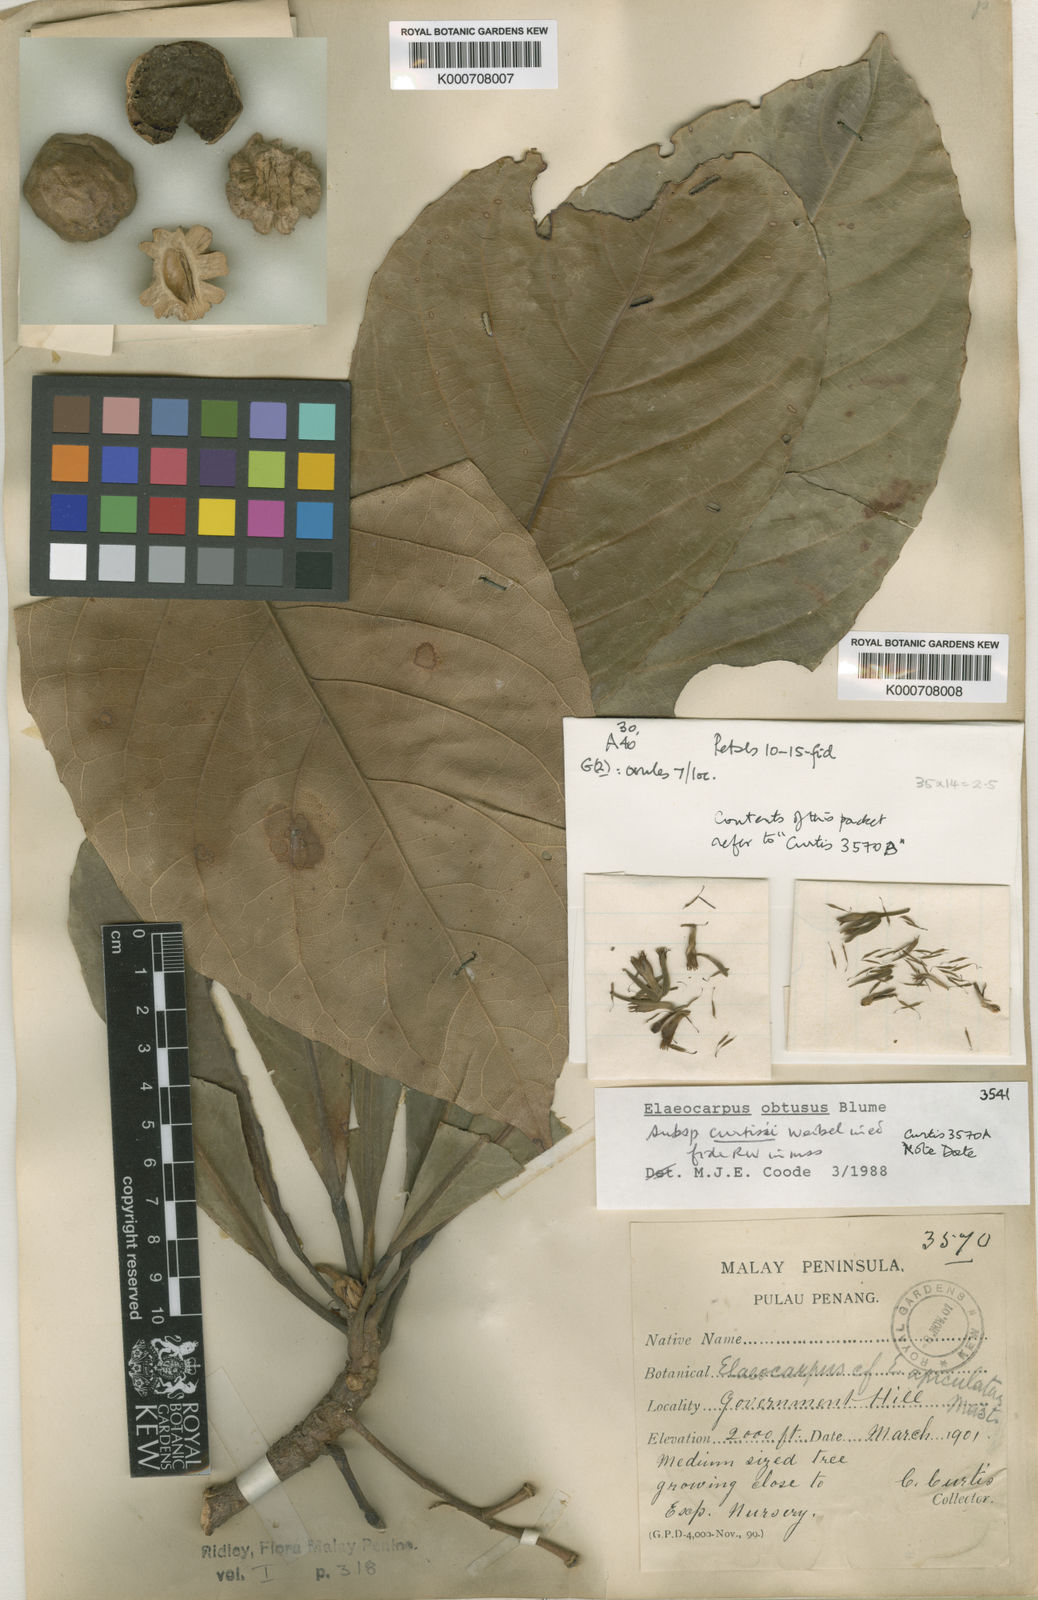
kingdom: Plantae
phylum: Tracheophyta
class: Magnoliopsida
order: Oxalidales
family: Elaeocarpaceae
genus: Elaeocarpus
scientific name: Elaeocarpus obtusus
